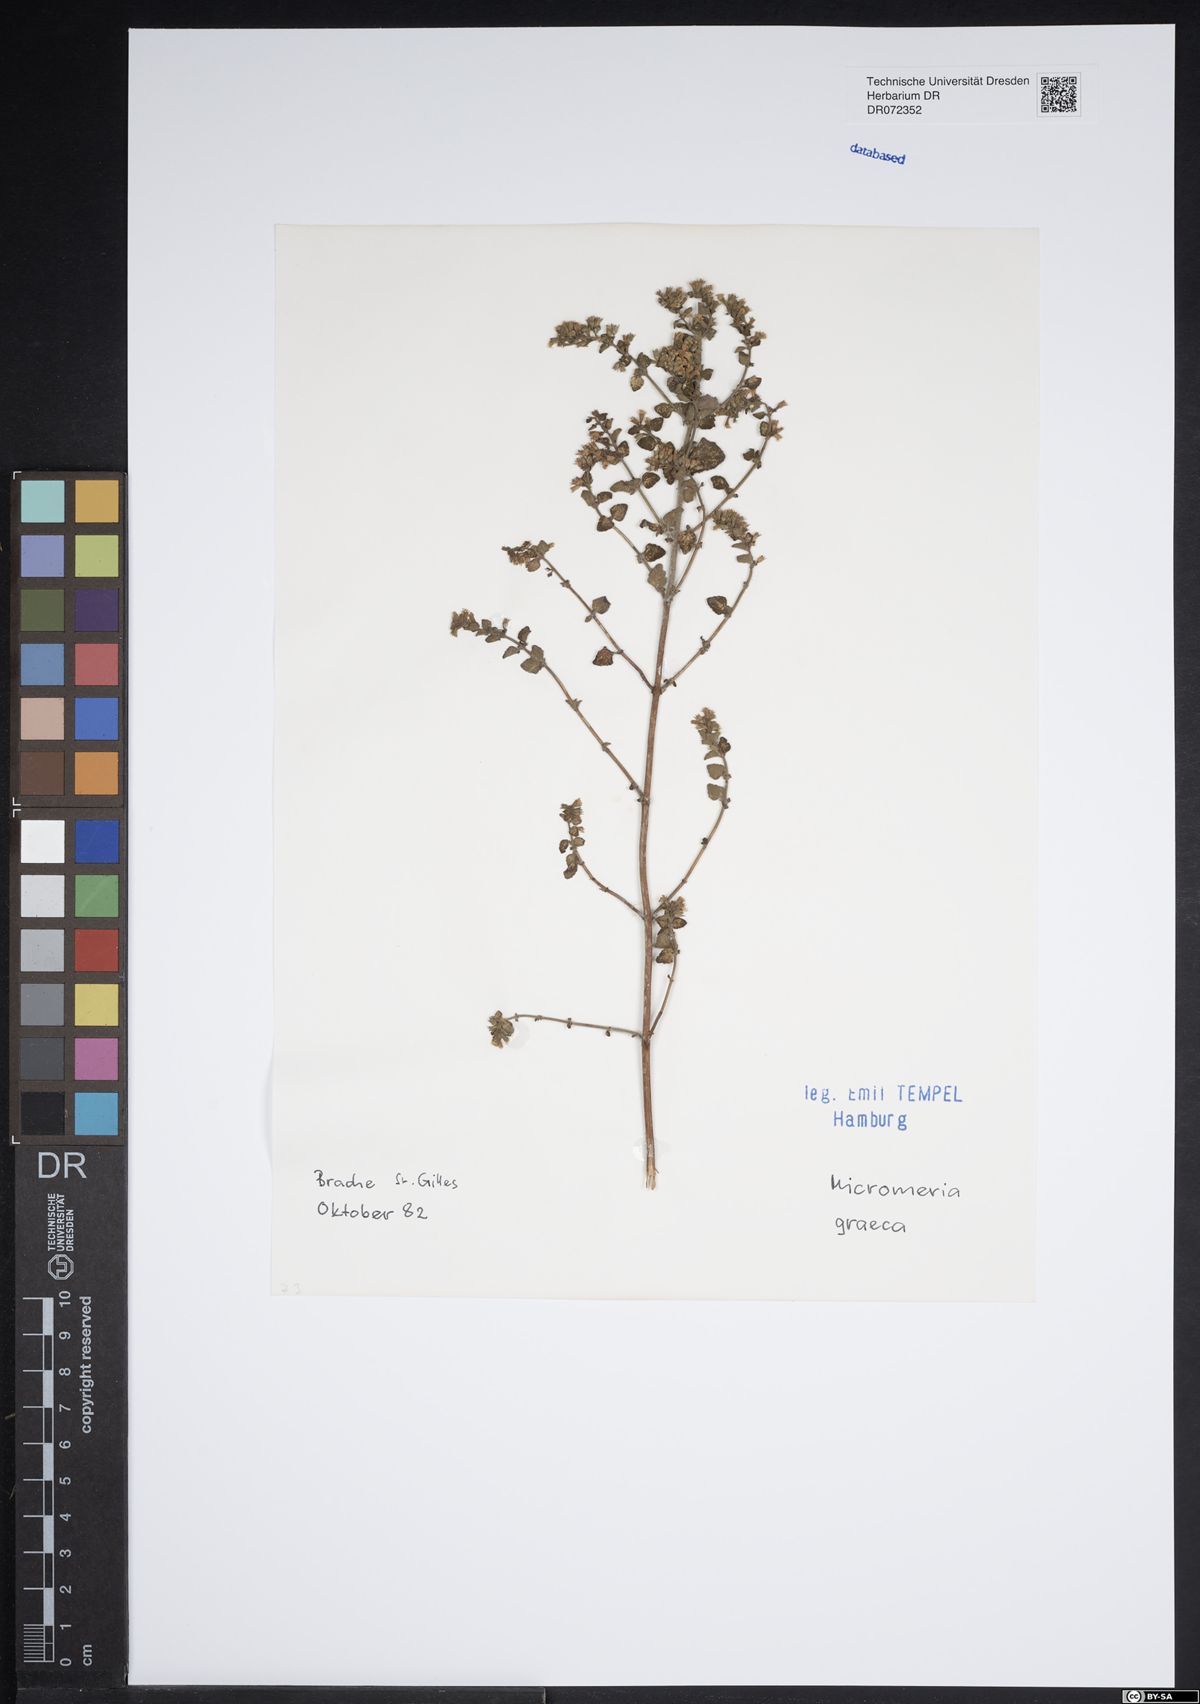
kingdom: Plantae
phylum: Tracheophyta
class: Magnoliopsida
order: Lamiales
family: Lamiaceae
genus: Micromeria
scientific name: Micromeria graeca
